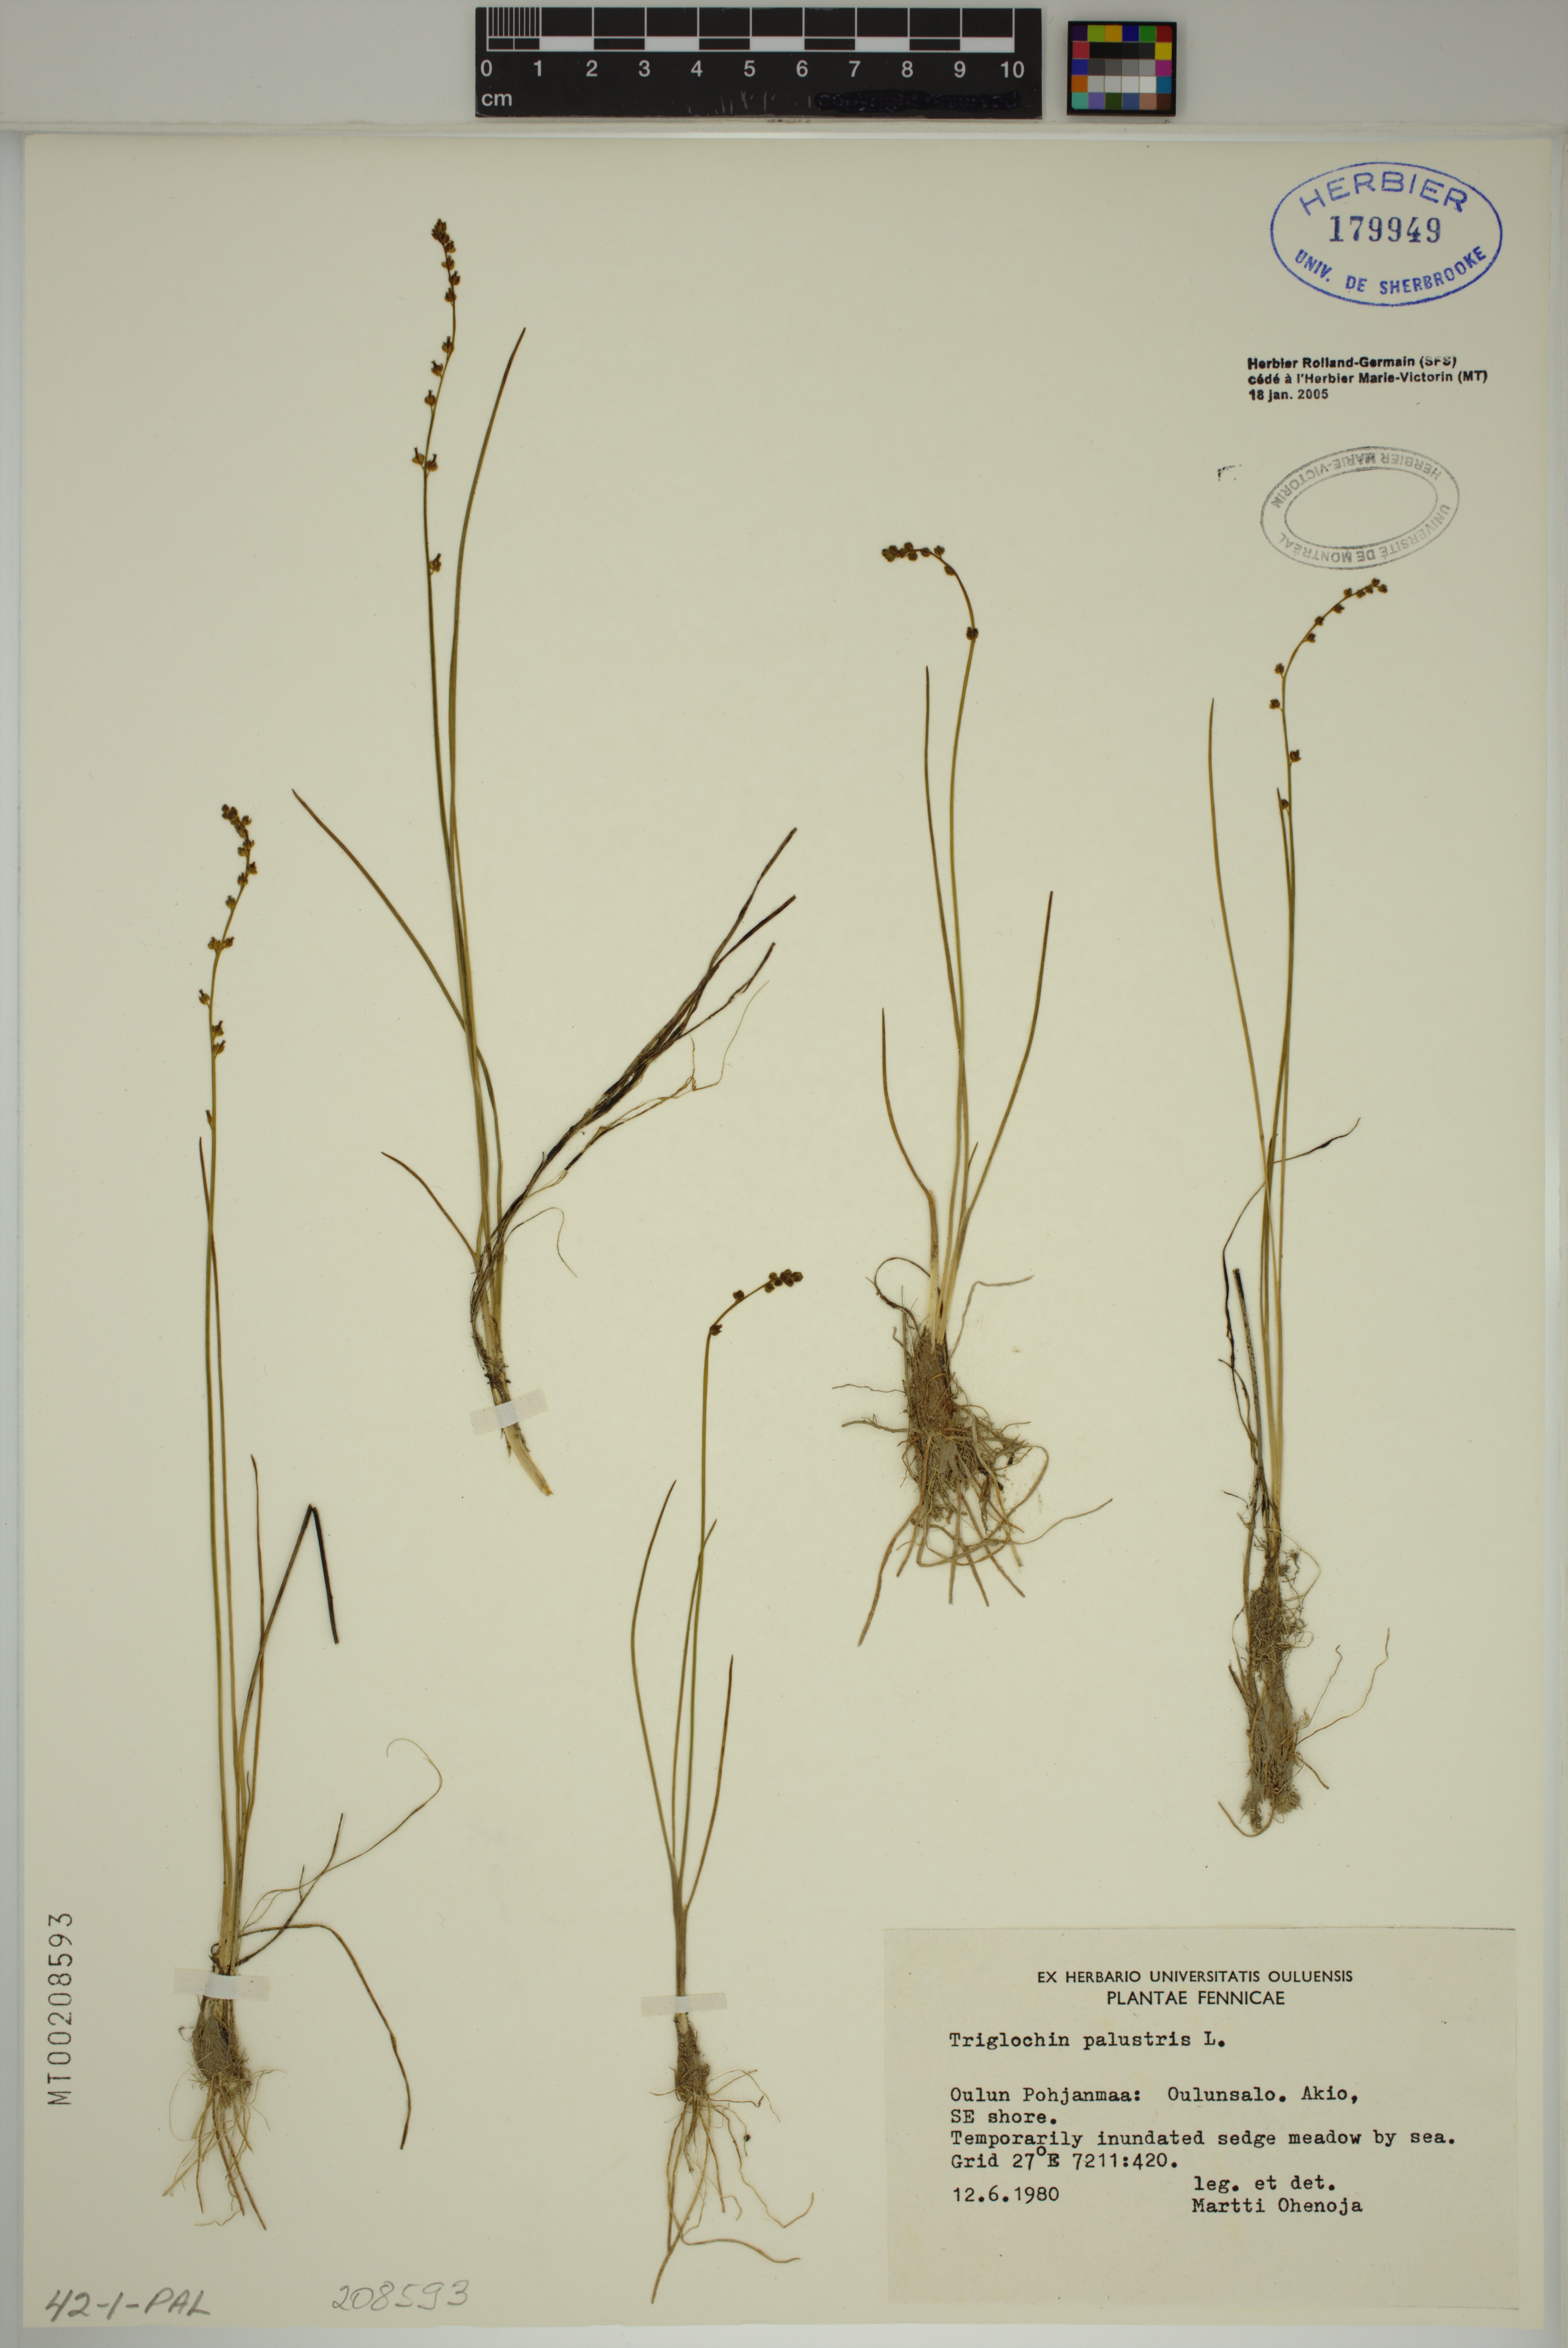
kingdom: Plantae
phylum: Tracheophyta
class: Liliopsida
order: Alismatales
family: Juncaginaceae
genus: Triglochin
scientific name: Triglochin palustris
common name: Marsh arrowgrass
